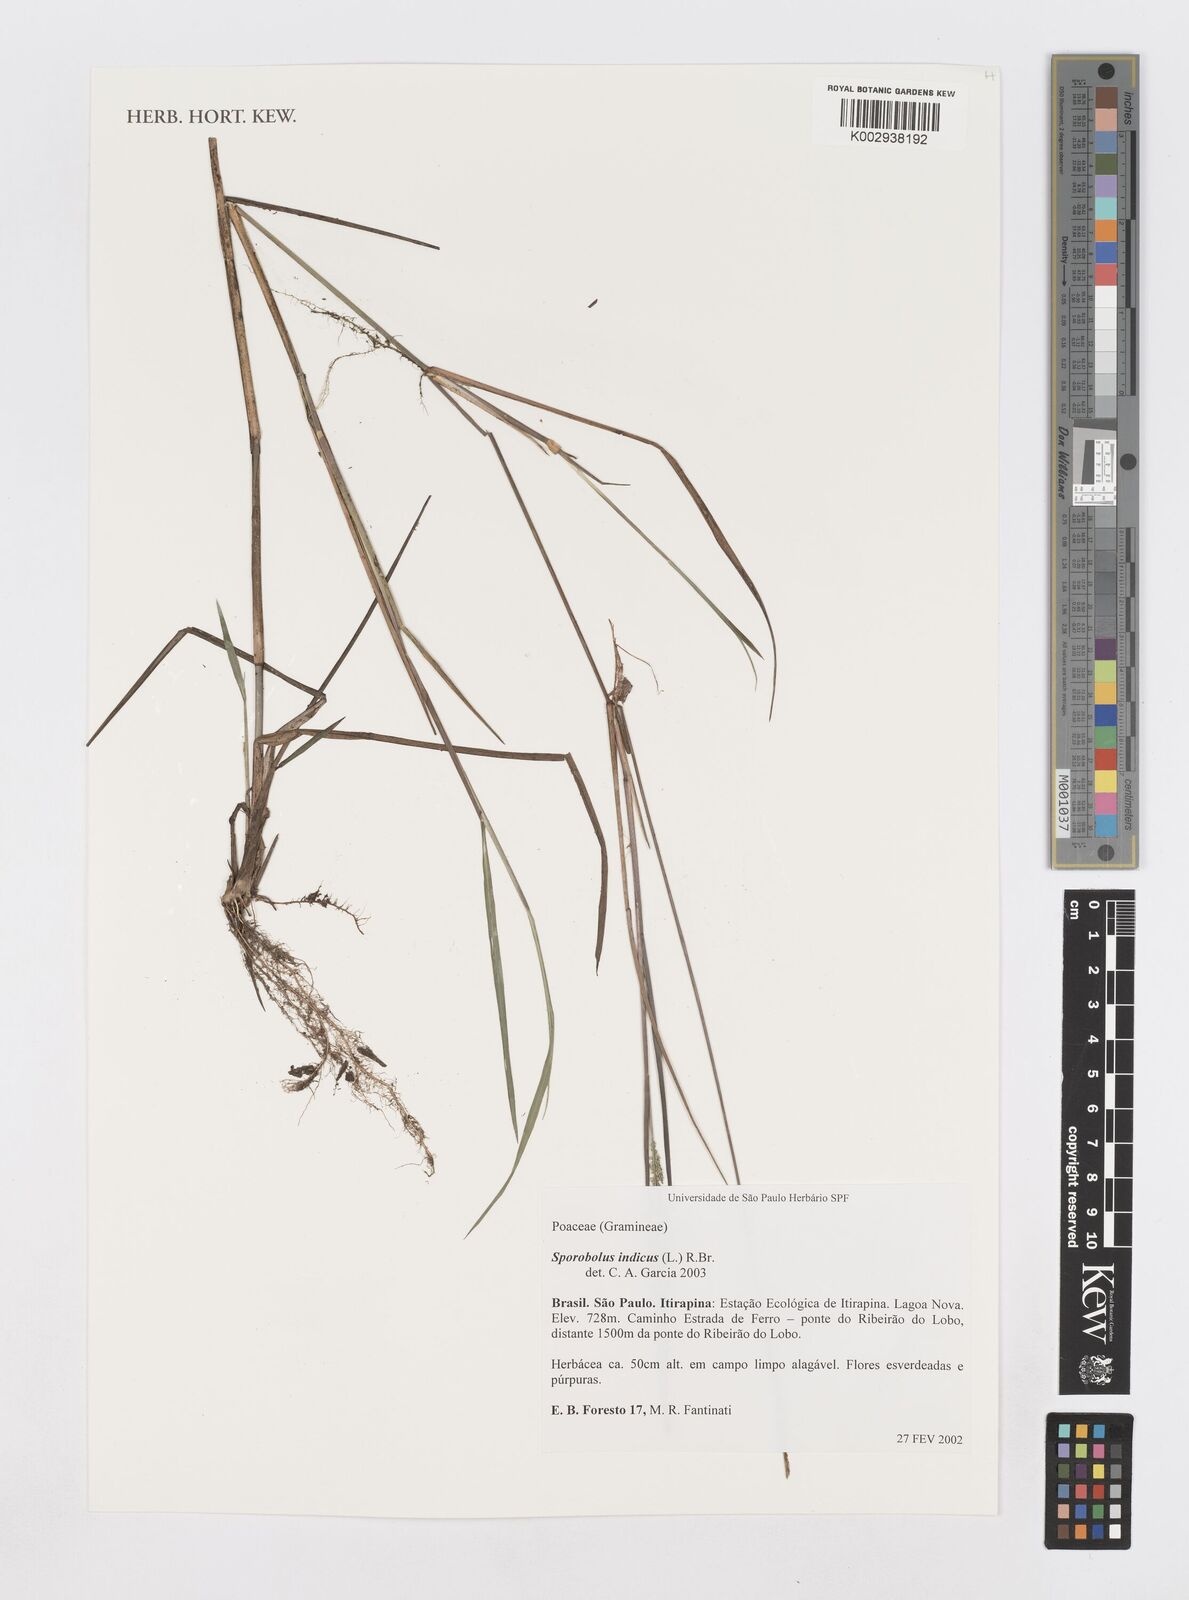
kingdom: Plantae
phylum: Tracheophyta
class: Liliopsida
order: Poales
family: Poaceae
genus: Sporobolus
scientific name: Sporobolus indicus
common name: Smut grass
